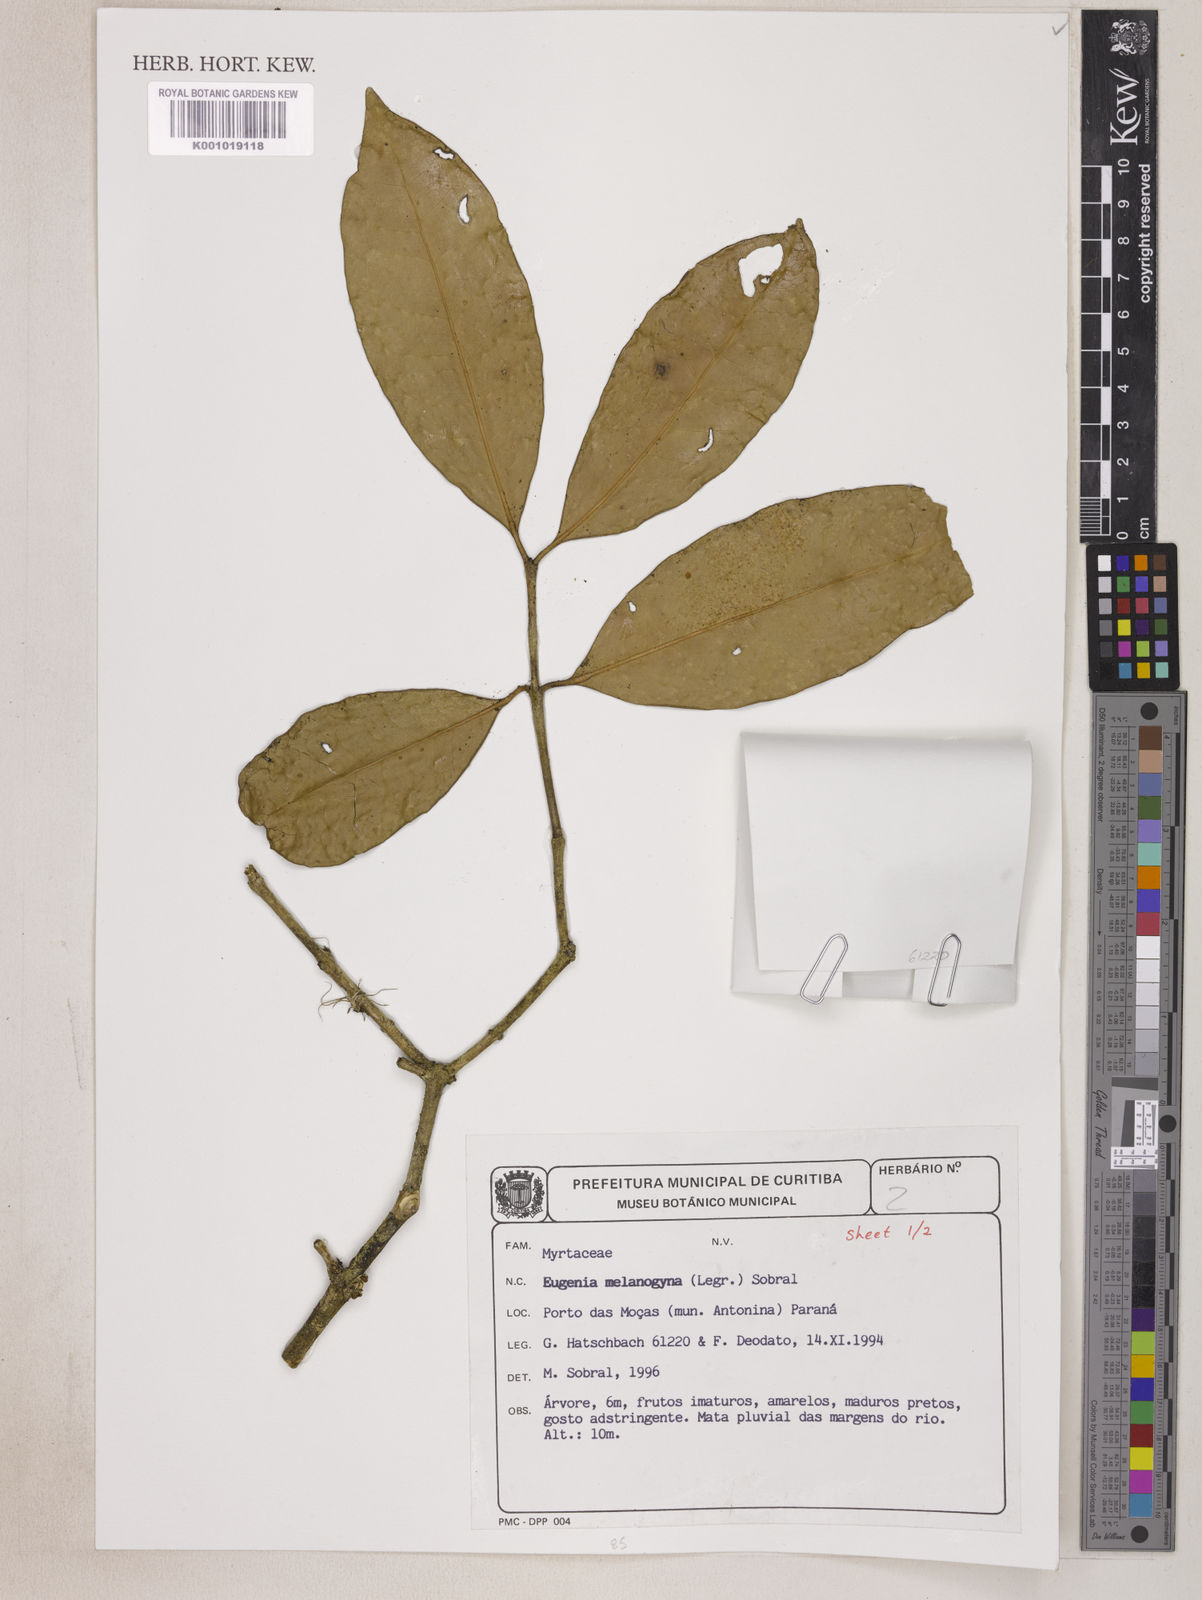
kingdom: Plantae
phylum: Tracheophyta
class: Magnoliopsida
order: Myrtales
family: Myrtaceae
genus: Eugenia
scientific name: Eugenia melanogyna
